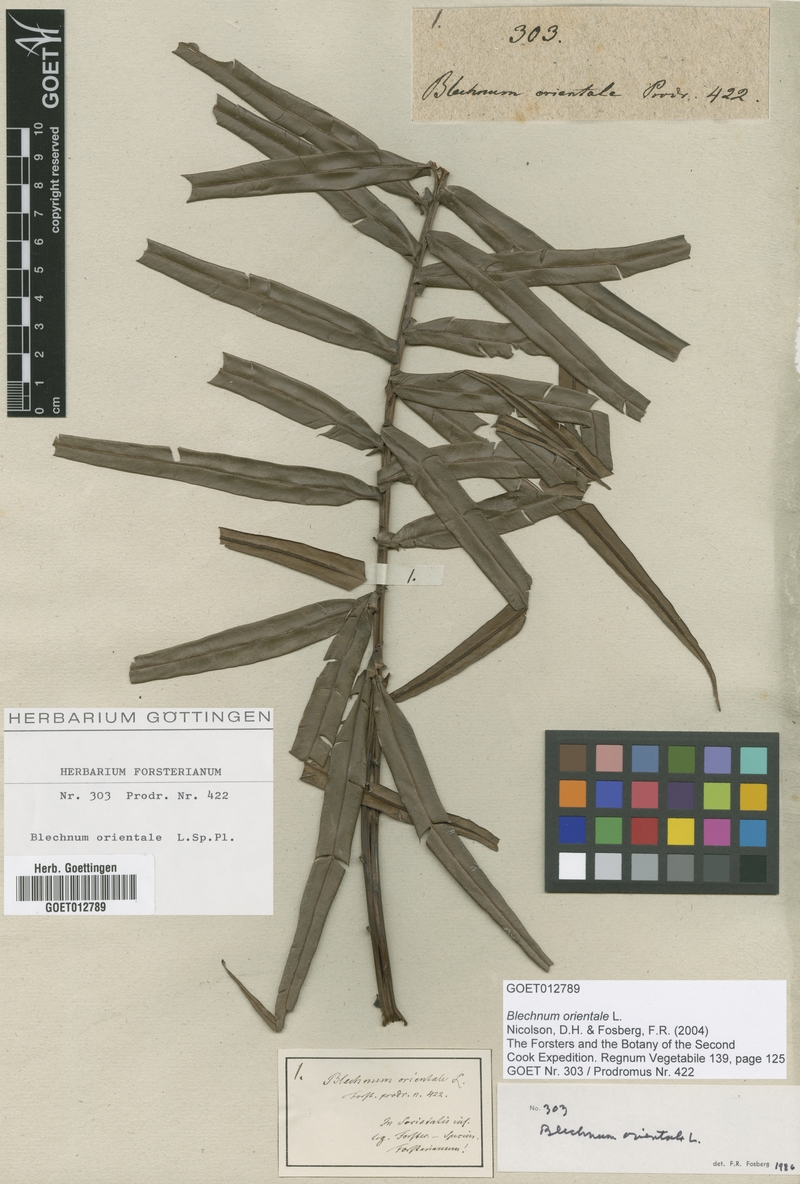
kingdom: Plantae
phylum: Tracheophyta
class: Polypodiopsida
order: Polypodiales
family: Blechnaceae
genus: Blechnopsis
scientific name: Blechnopsis orientalis
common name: Oriental blechnum
